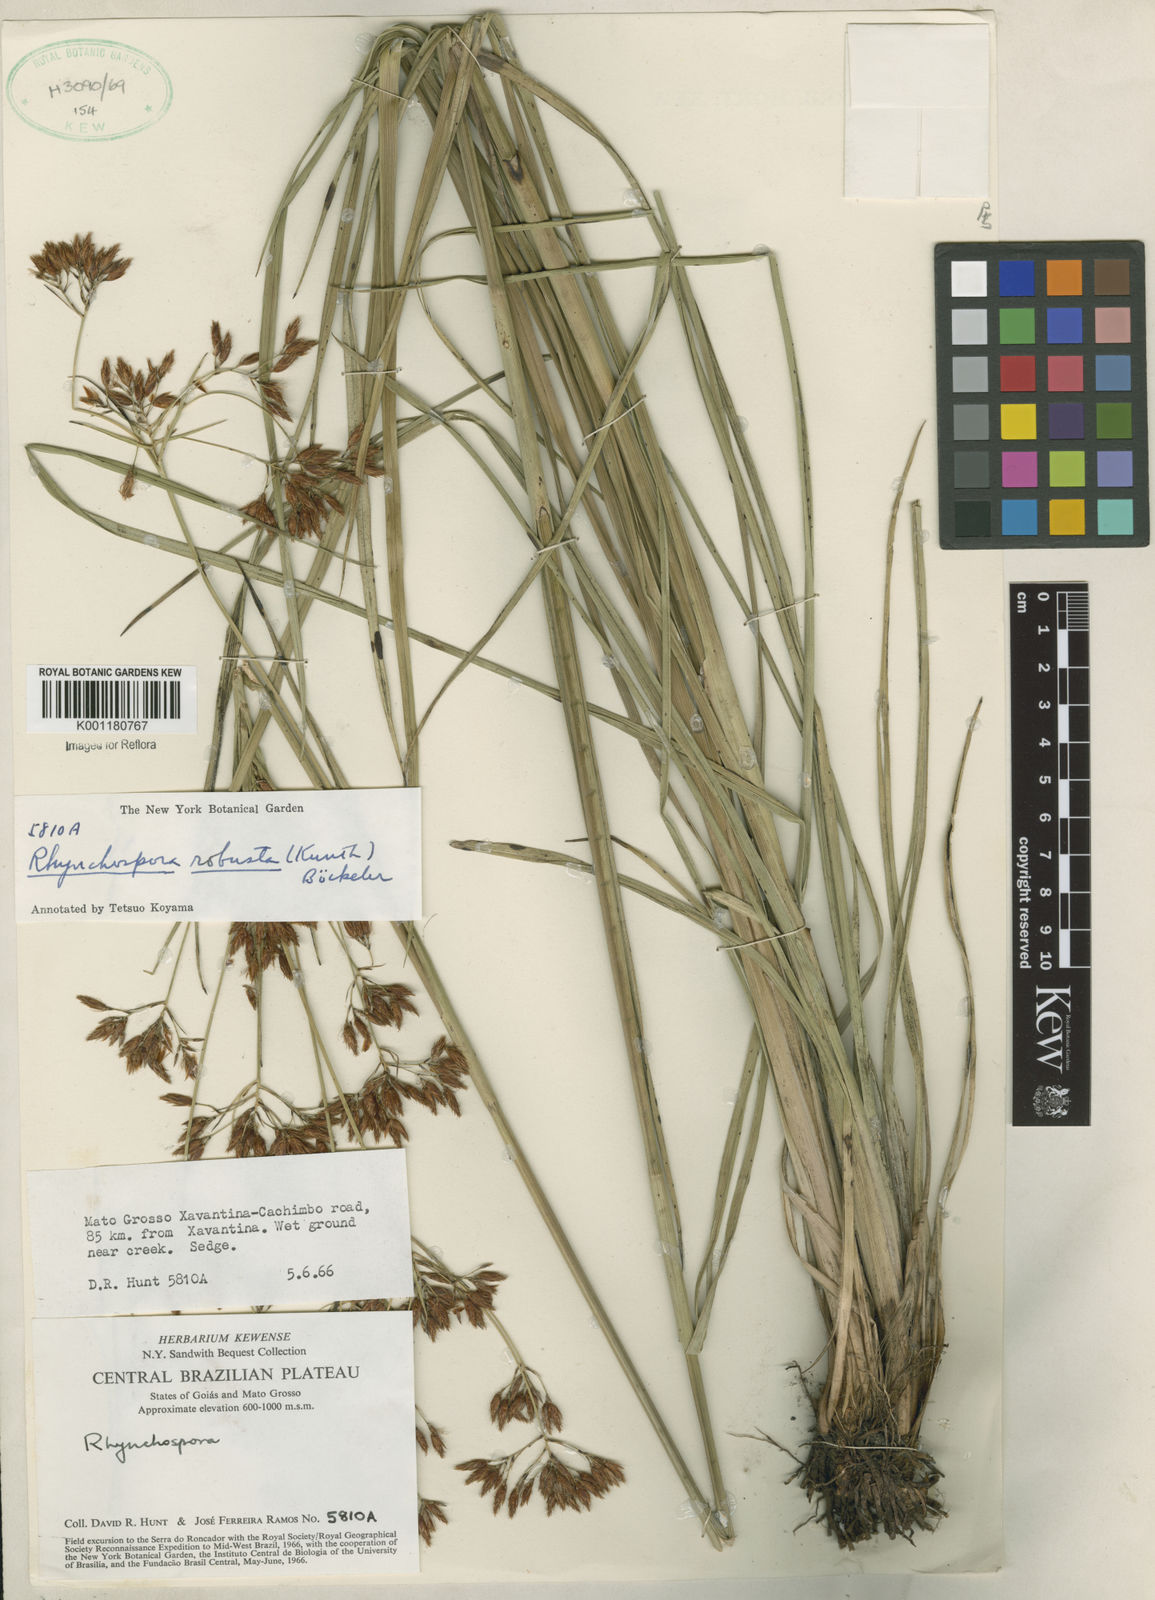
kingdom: Plantae
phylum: Tracheophyta
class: Liliopsida
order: Poales
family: Cyperaceae
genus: Rhynchospora
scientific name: Rhynchospora robusta
